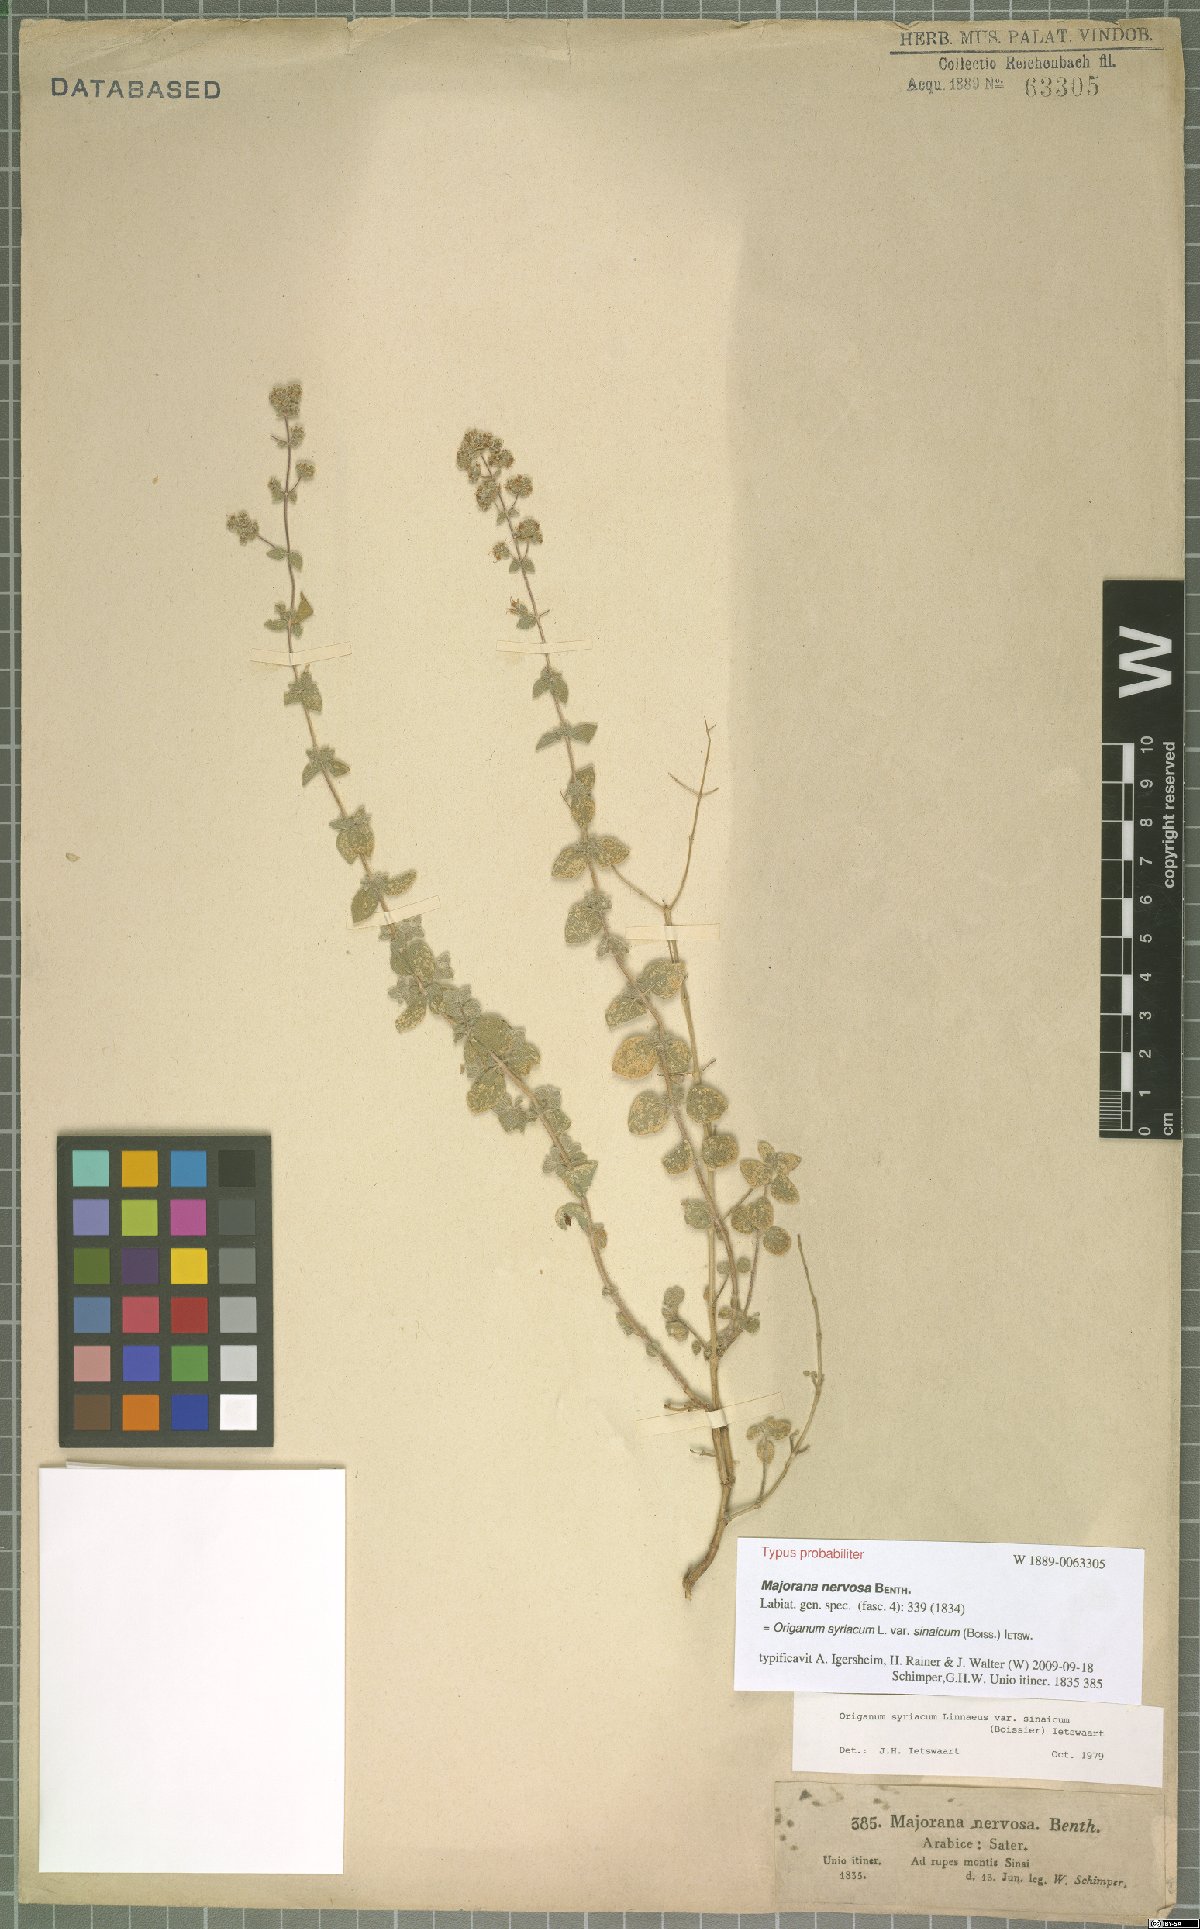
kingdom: Plantae
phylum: Tracheophyta
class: Magnoliopsida
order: Lamiales
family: Lamiaceae
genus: Origanum
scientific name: Origanum syriacum
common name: Biblical-hyssop
